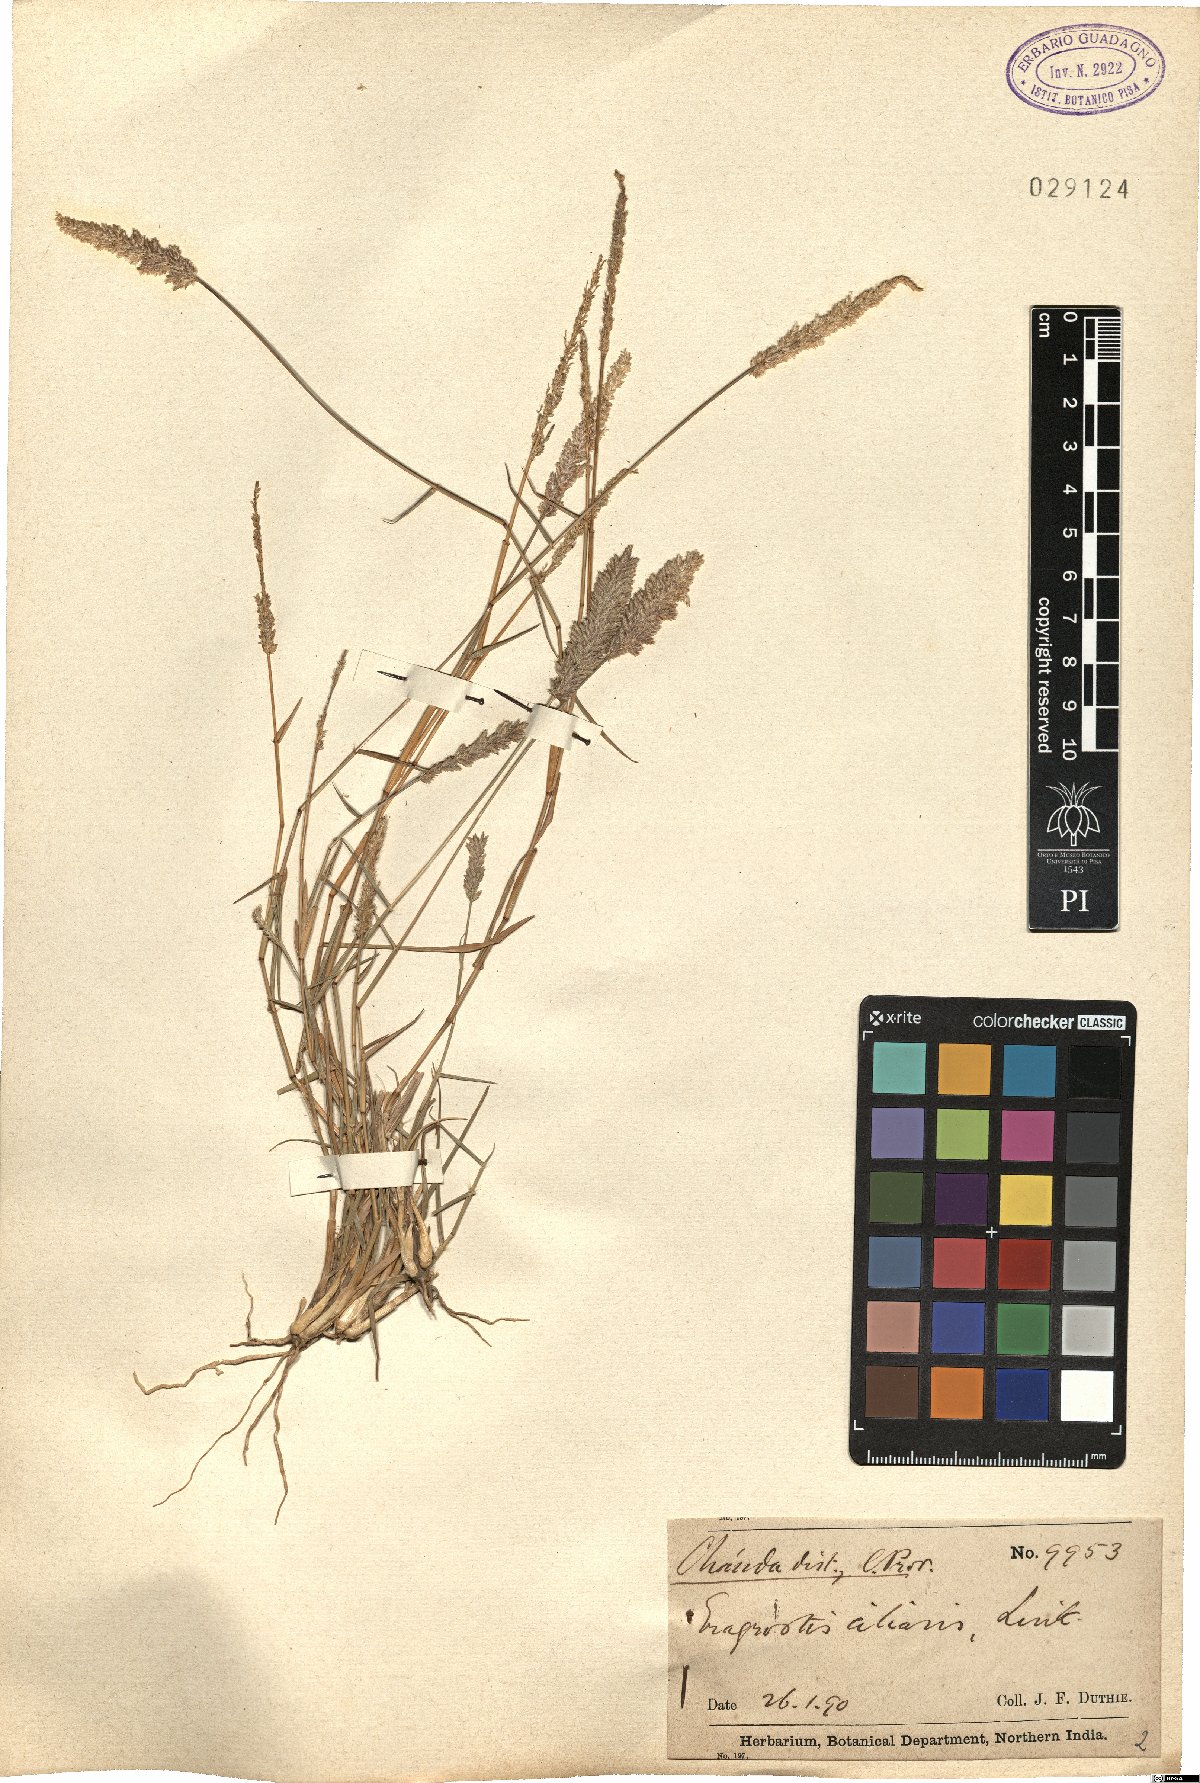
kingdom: Plantae
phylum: Tracheophyta
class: Liliopsida
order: Poales
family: Poaceae
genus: Eragrostis
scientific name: Eragrostis ciliaris
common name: Gophertail lovegrass
